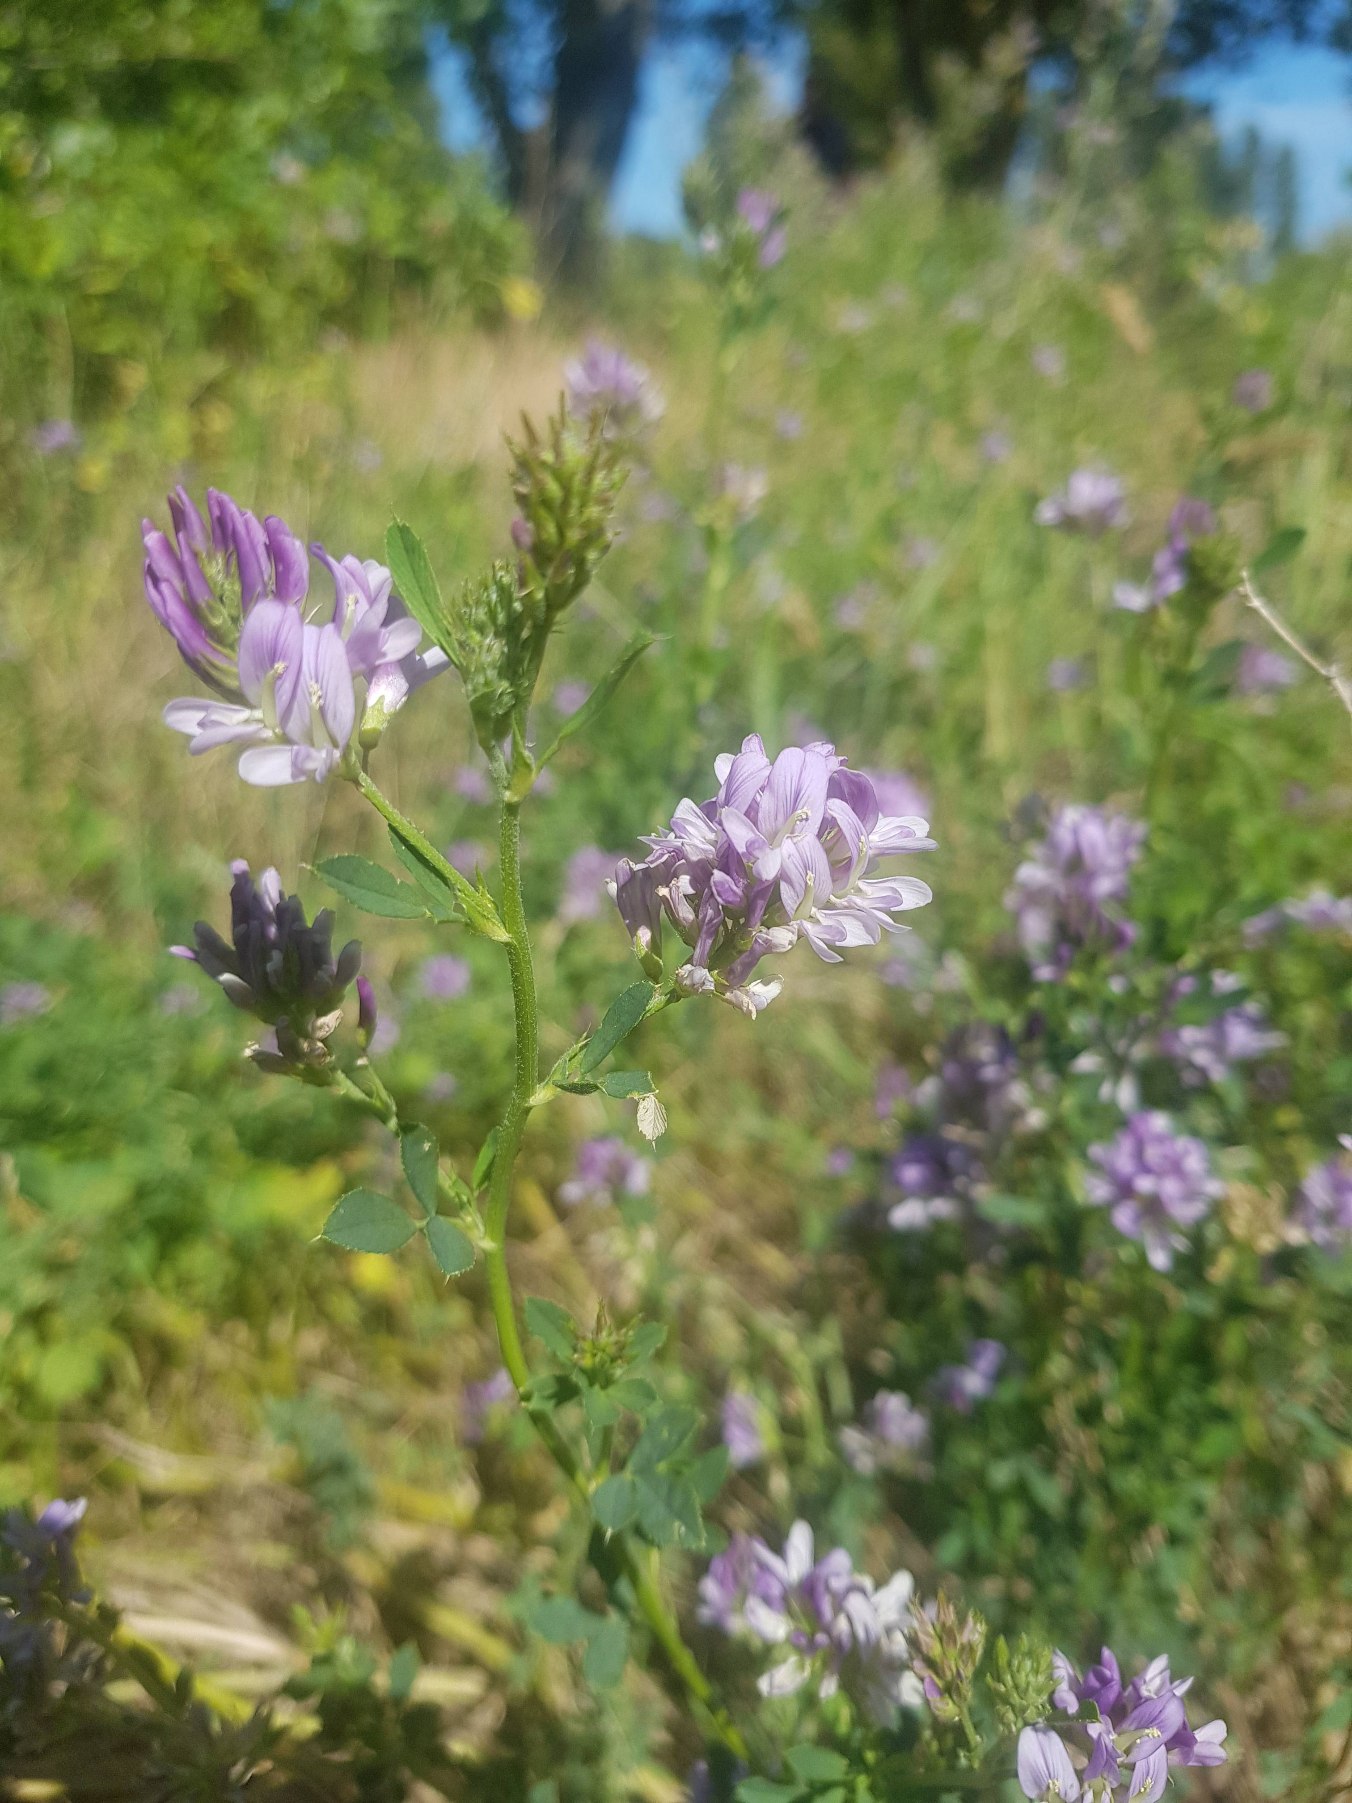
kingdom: Plantae
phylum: Tracheophyta
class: Magnoliopsida
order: Fabales
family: Fabaceae
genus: Medicago
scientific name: Medicago sativa
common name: Lucerne
